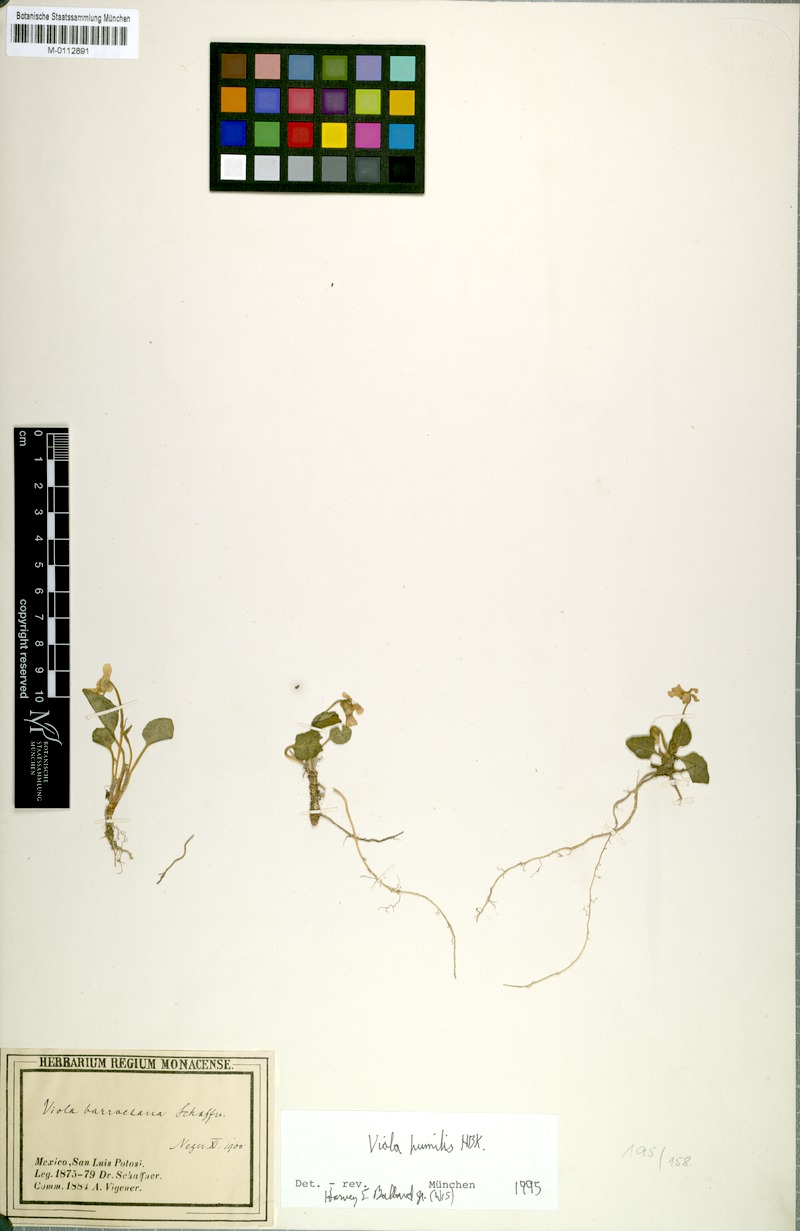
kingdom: Plantae
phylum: Tracheophyta
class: Magnoliopsida
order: Malpighiales
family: Violaceae
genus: Viola
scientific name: Viola humilis
